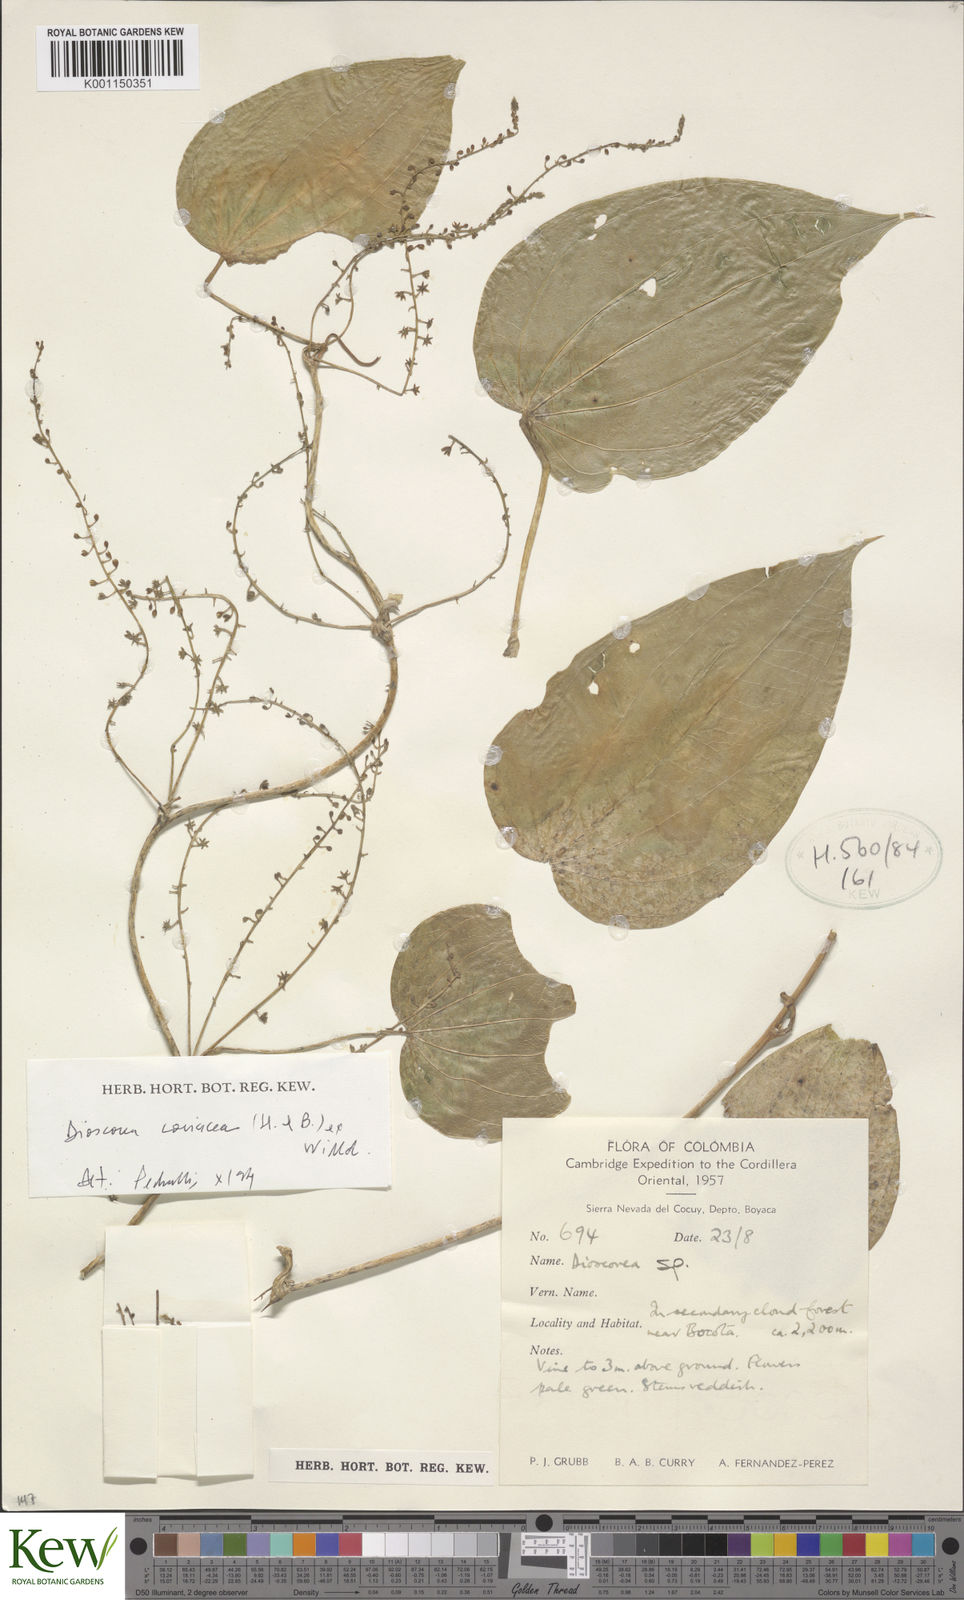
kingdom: Plantae
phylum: Tracheophyta
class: Liliopsida
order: Dioscoreales
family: Dioscoreaceae
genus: Dioscorea
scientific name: Dioscorea coriacea
